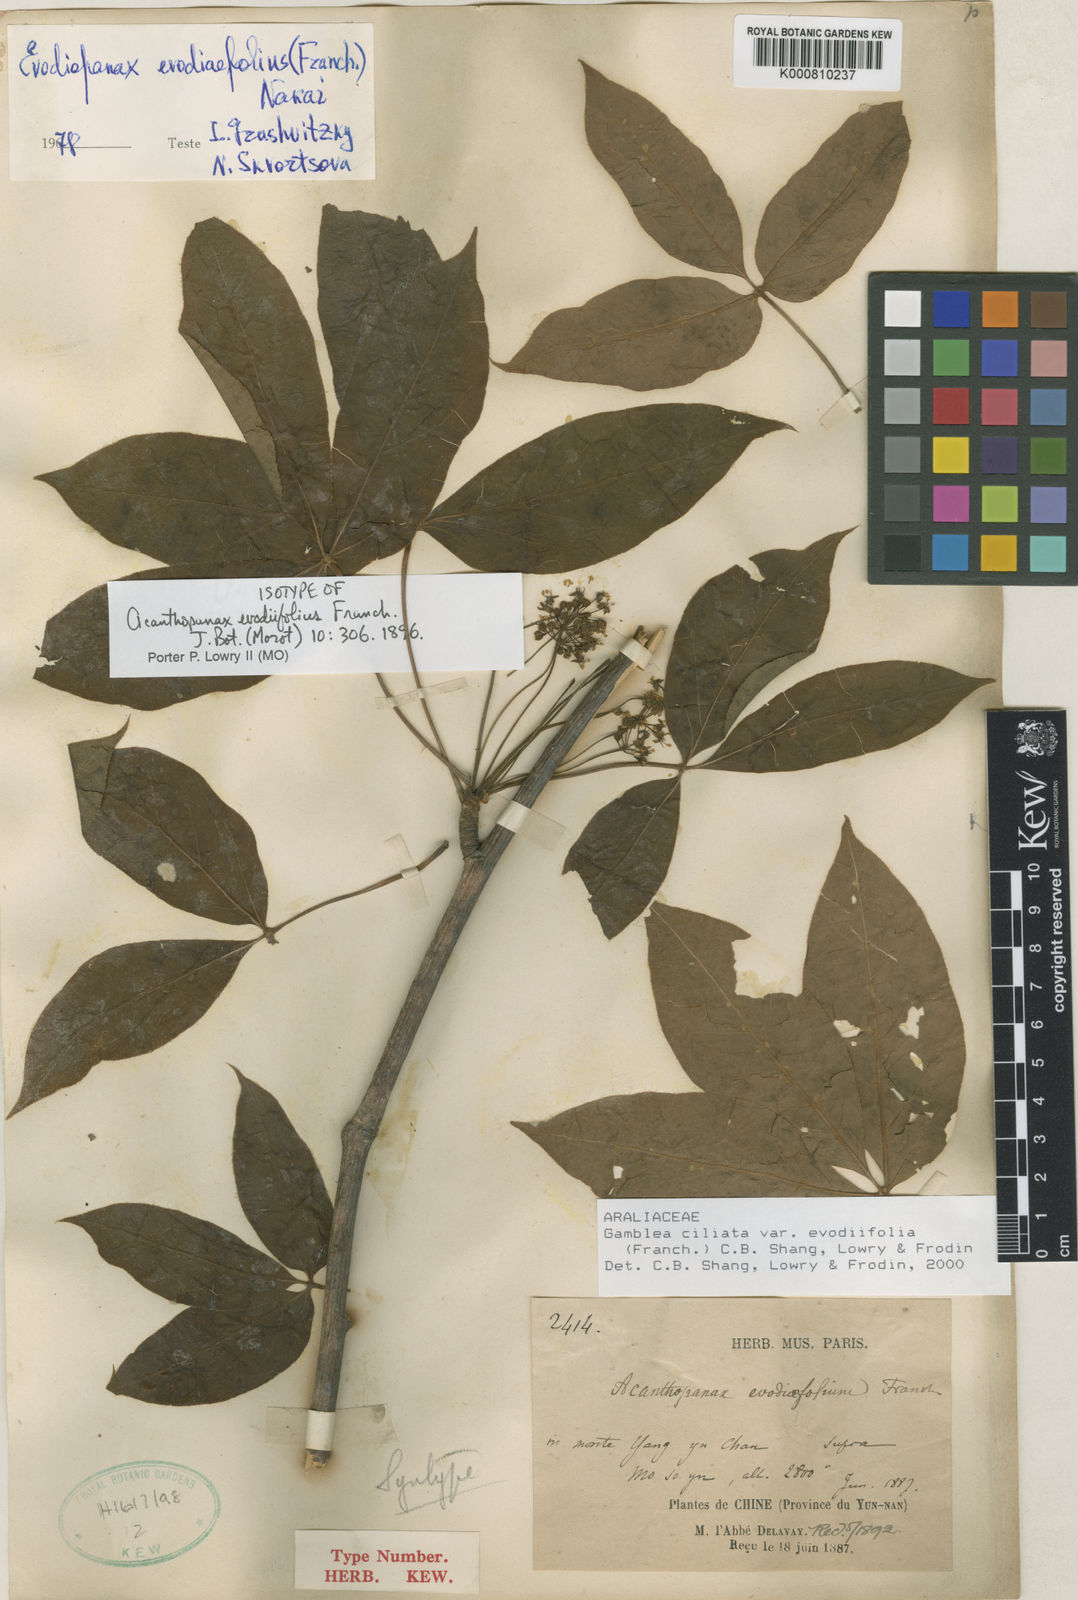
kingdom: Plantae
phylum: Tracheophyta
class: Magnoliopsida
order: Apiales
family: Araliaceae
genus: Gamblea
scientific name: Gamblea ciliata
